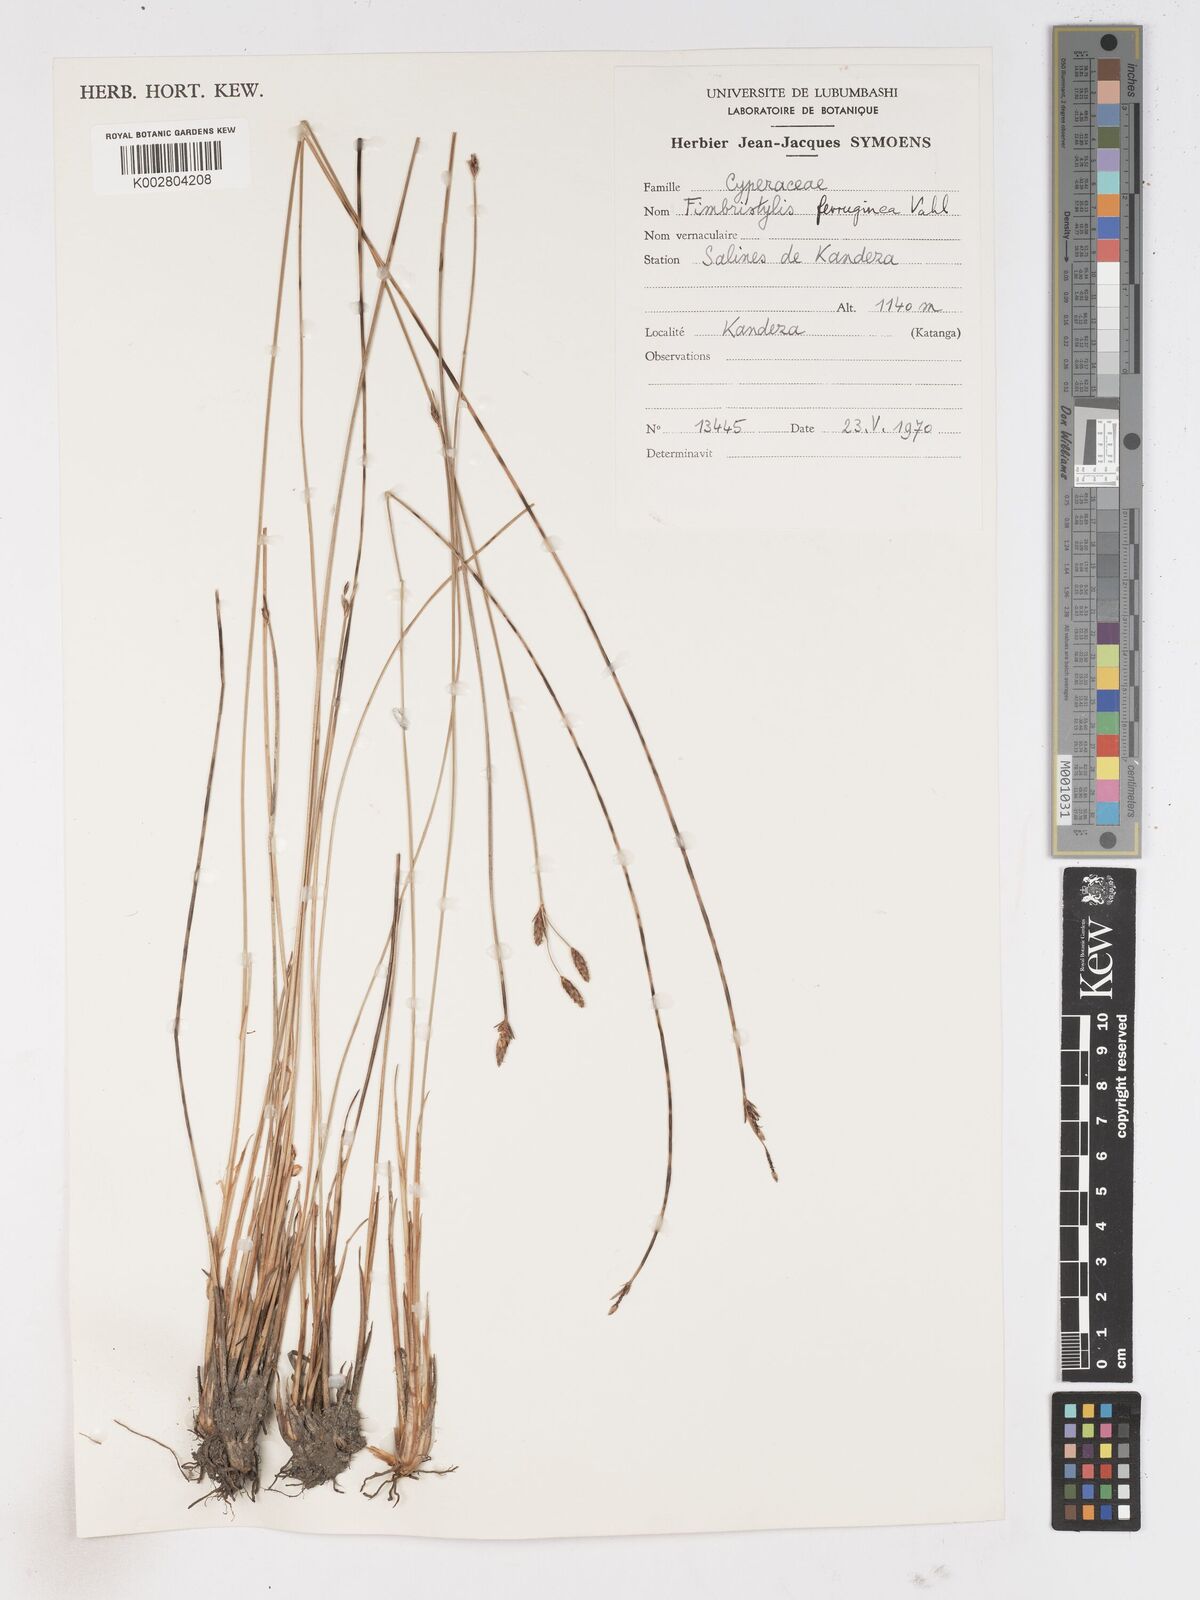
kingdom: Plantae
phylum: Tracheophyta
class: Liliopsida
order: Poales
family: Cyperaceae
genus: Fimbristylis
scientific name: Fimbristylis ferruginea
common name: West indian fimbry
